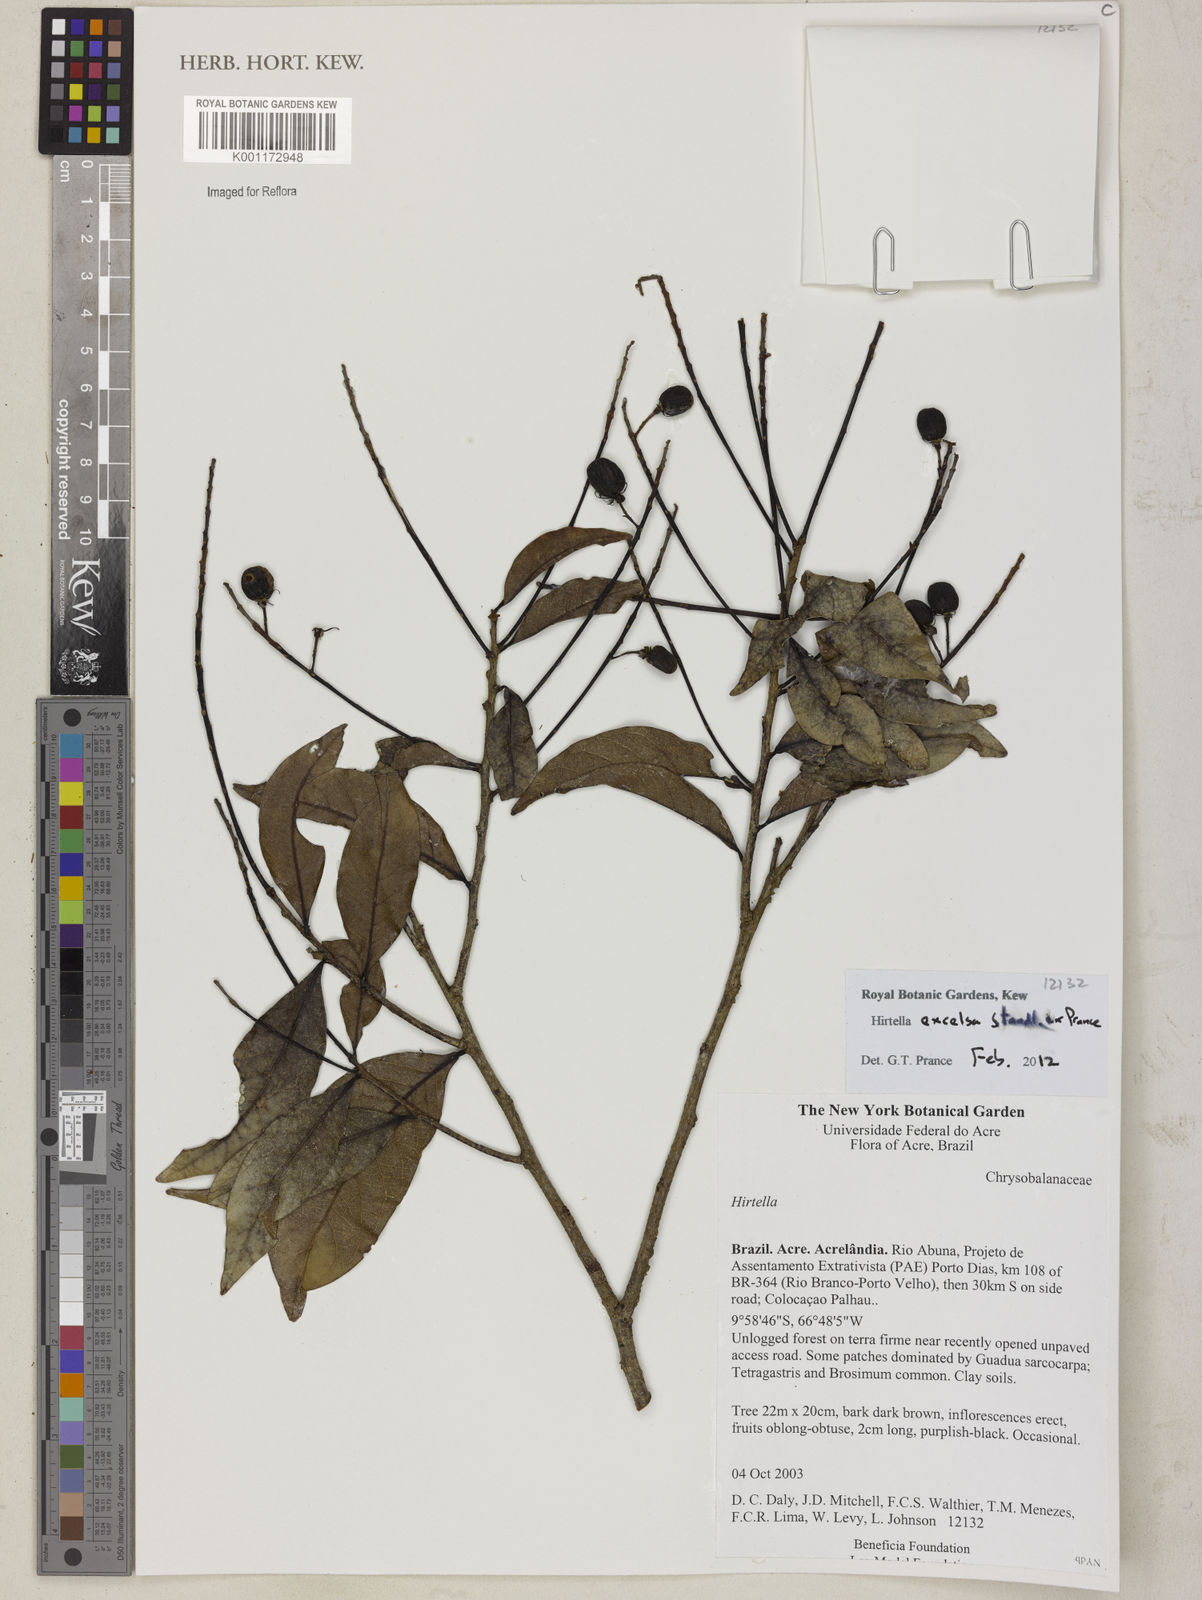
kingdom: Plantae
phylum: Tracheophyta
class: Magnoliopsida
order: Malpighiales
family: Chrysobalanaceae
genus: Hirtella
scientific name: Hirtella excelsa
